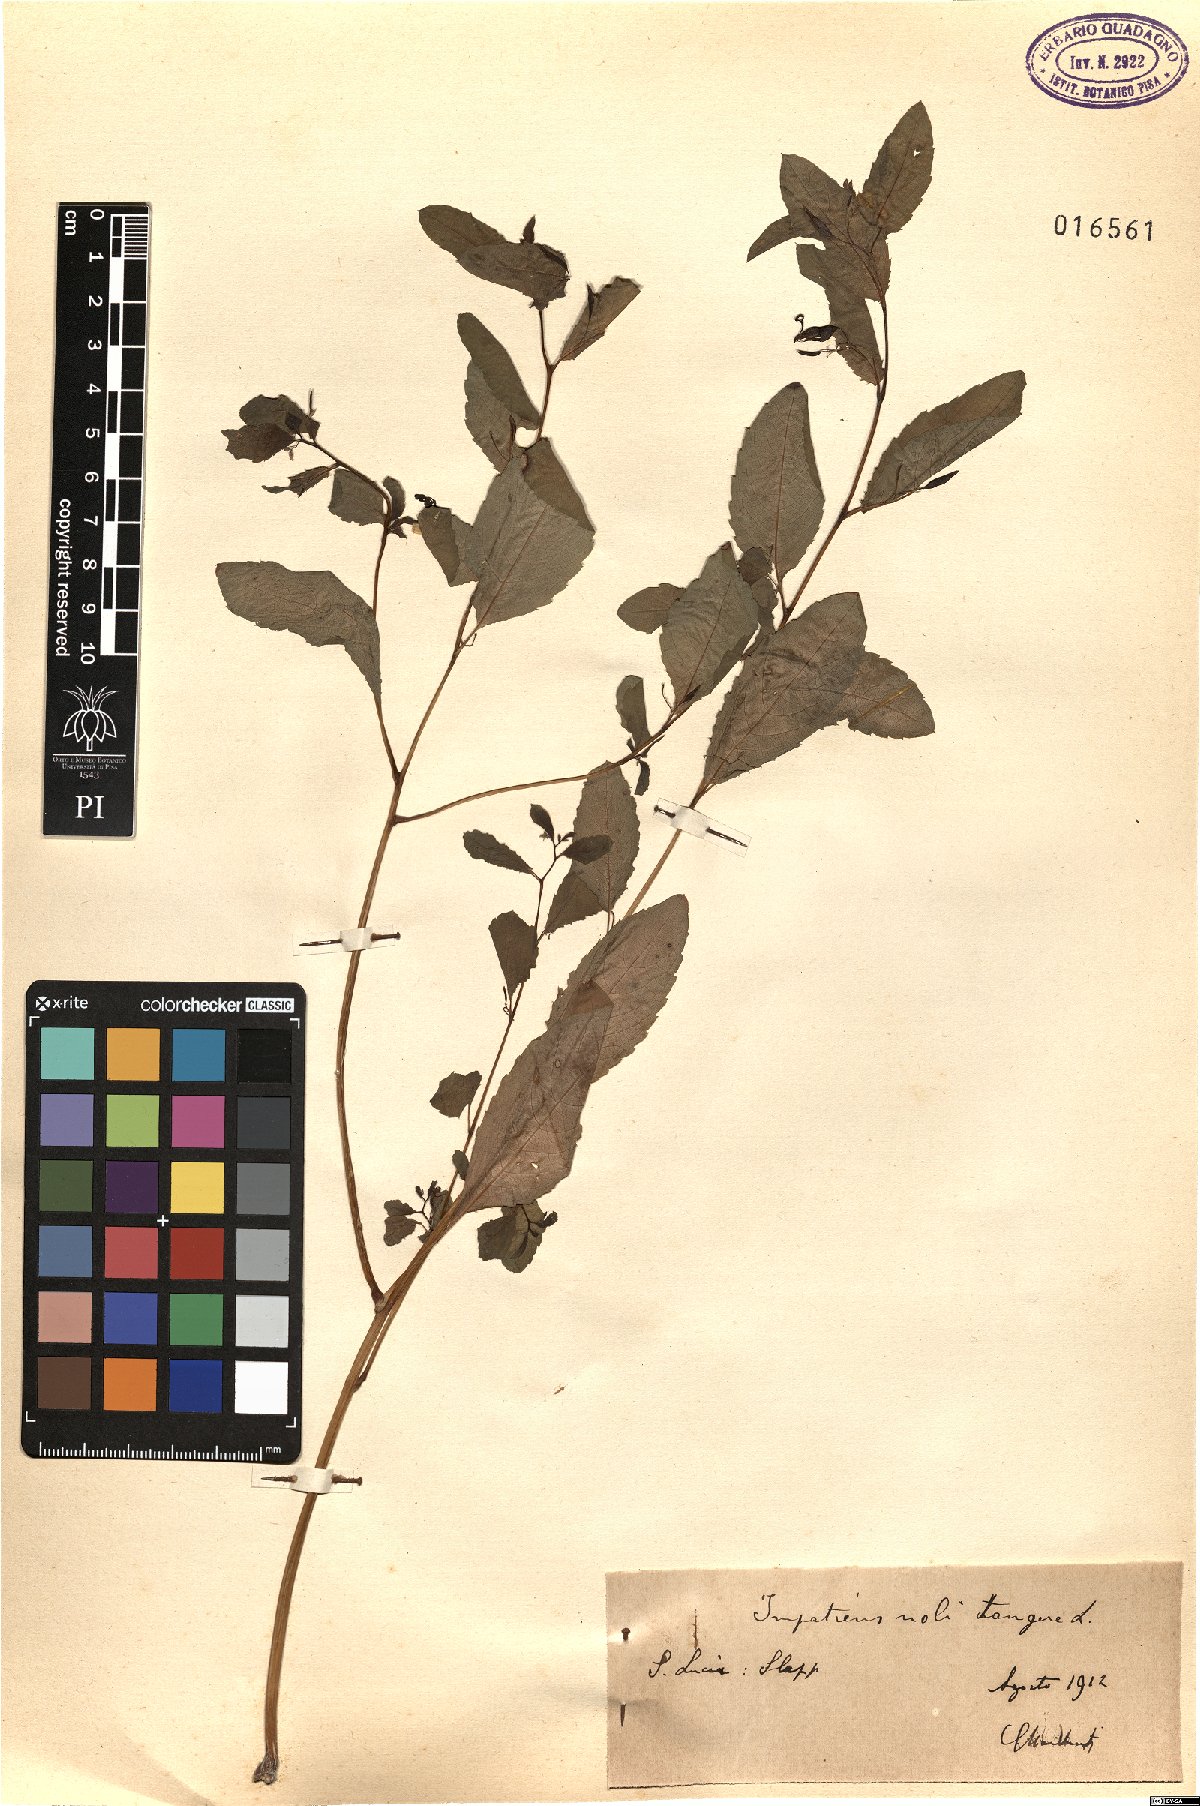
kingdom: Plantae
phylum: Tracheophyta
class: Magnoliopsida
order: Ericales
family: Balsaminaceae
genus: Impatiens
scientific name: Impatiens noli-tangere
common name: Touch-me-not balsam
